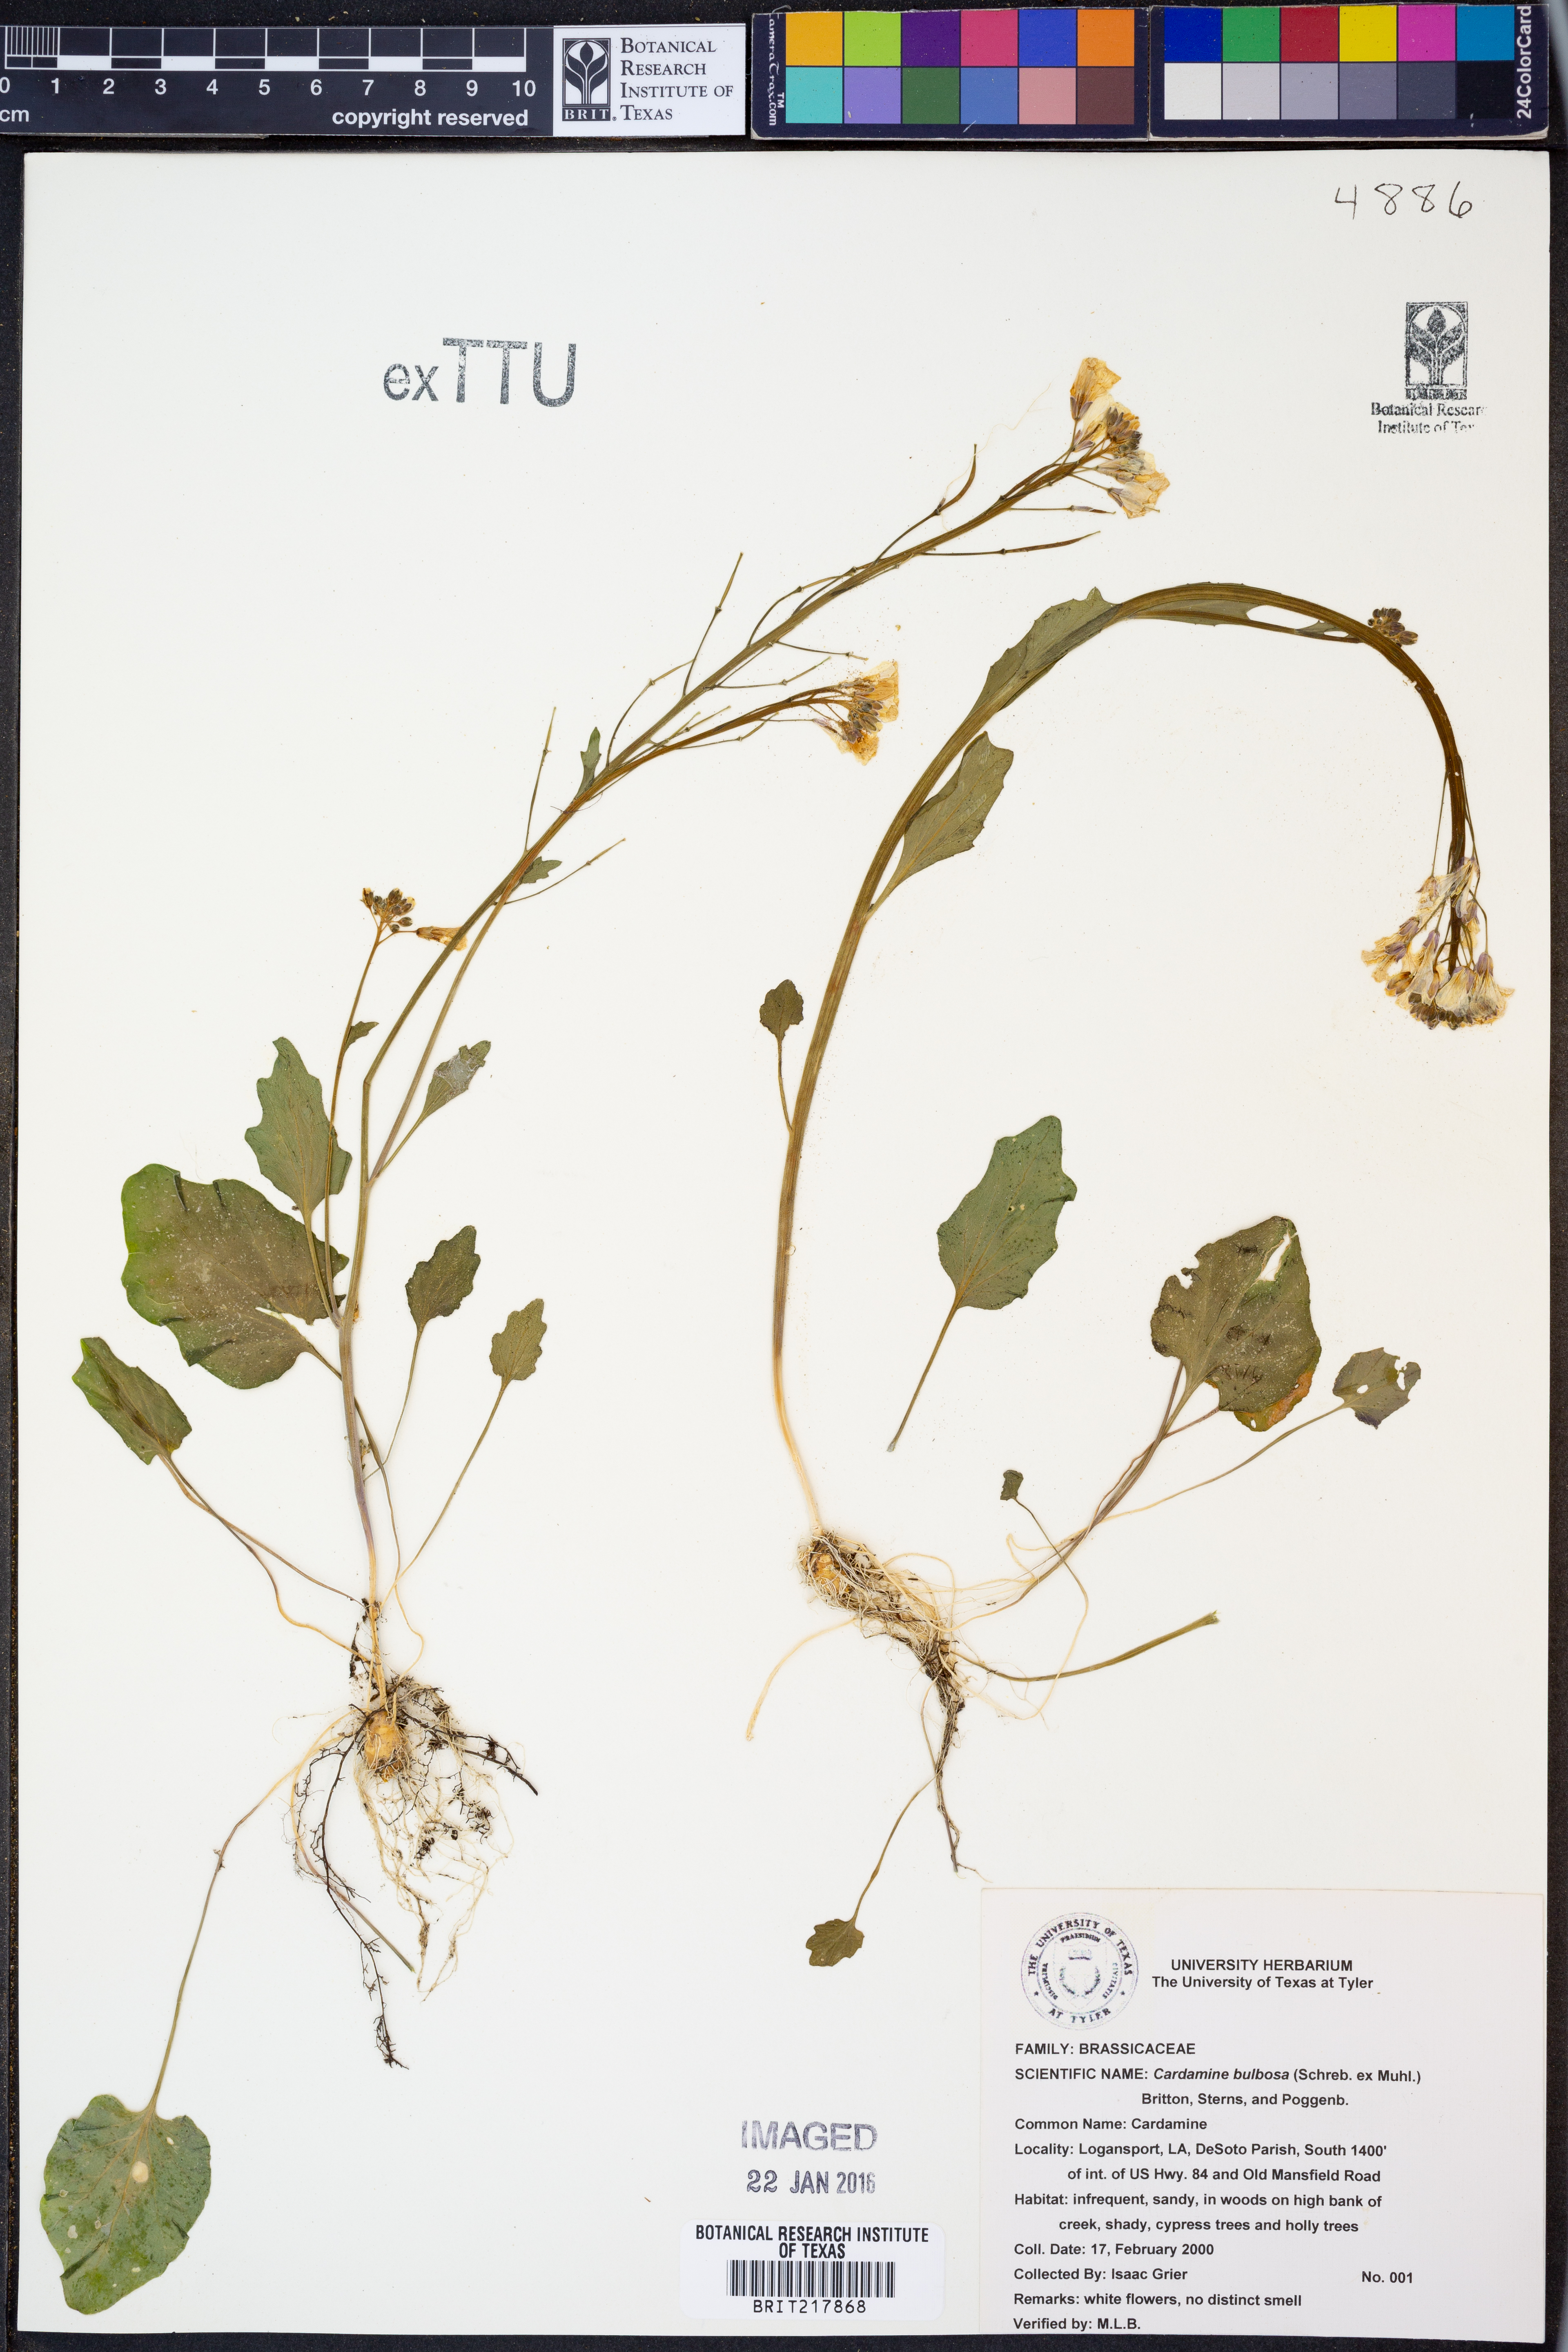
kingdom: Plantae
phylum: Tracheophyta
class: Magnoliopsida
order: Brassicales
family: Brassicaceae
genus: Cardamine
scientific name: Cardamine bulbosa
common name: Spring cress
